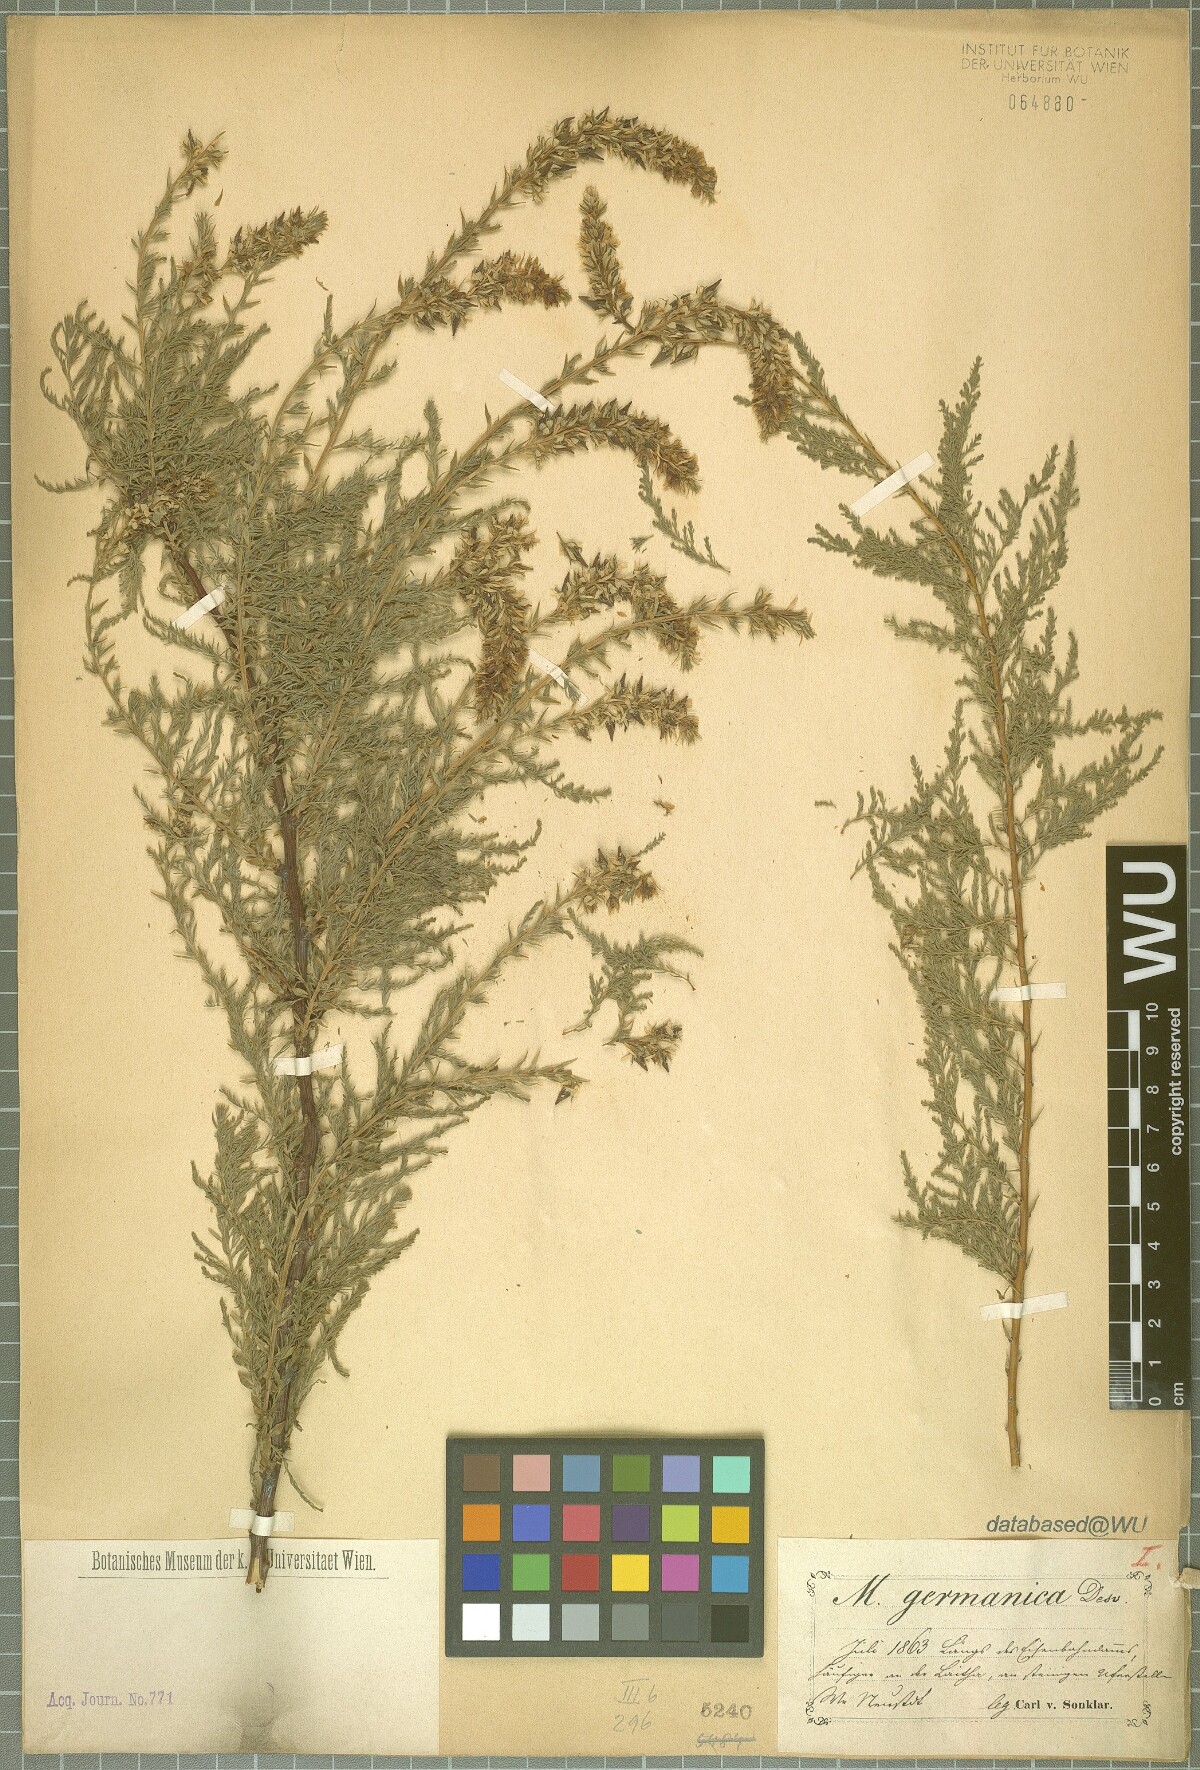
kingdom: Plantae
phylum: Tracheophyta
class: Magnoliopsida
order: Caryophyllales
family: Tamaricaceae
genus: Myricaria
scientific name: Myricaria germanica
